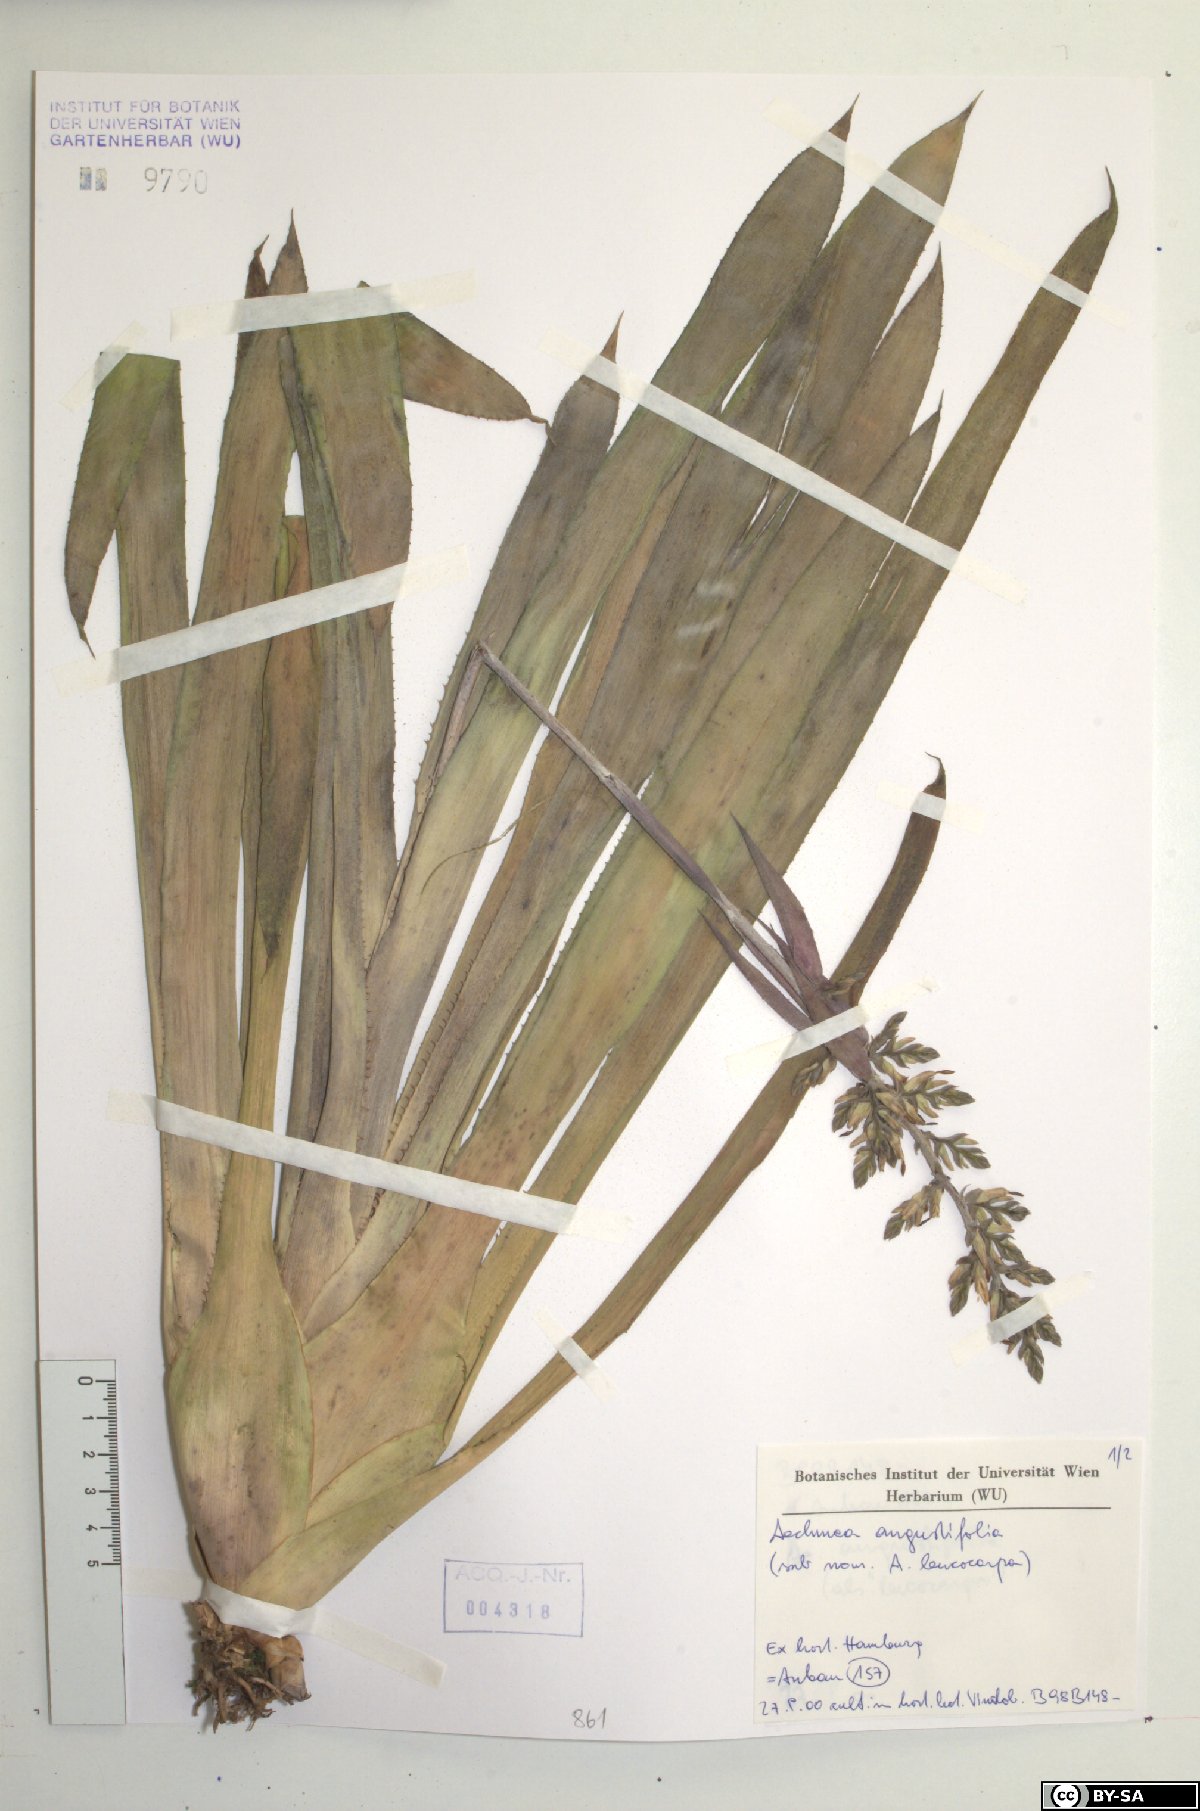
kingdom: Plantae
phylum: Tracheophyta
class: Liliopsida
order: Poales
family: Bromeliaceae
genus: Aechmea
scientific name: Aechmea angustifolia
